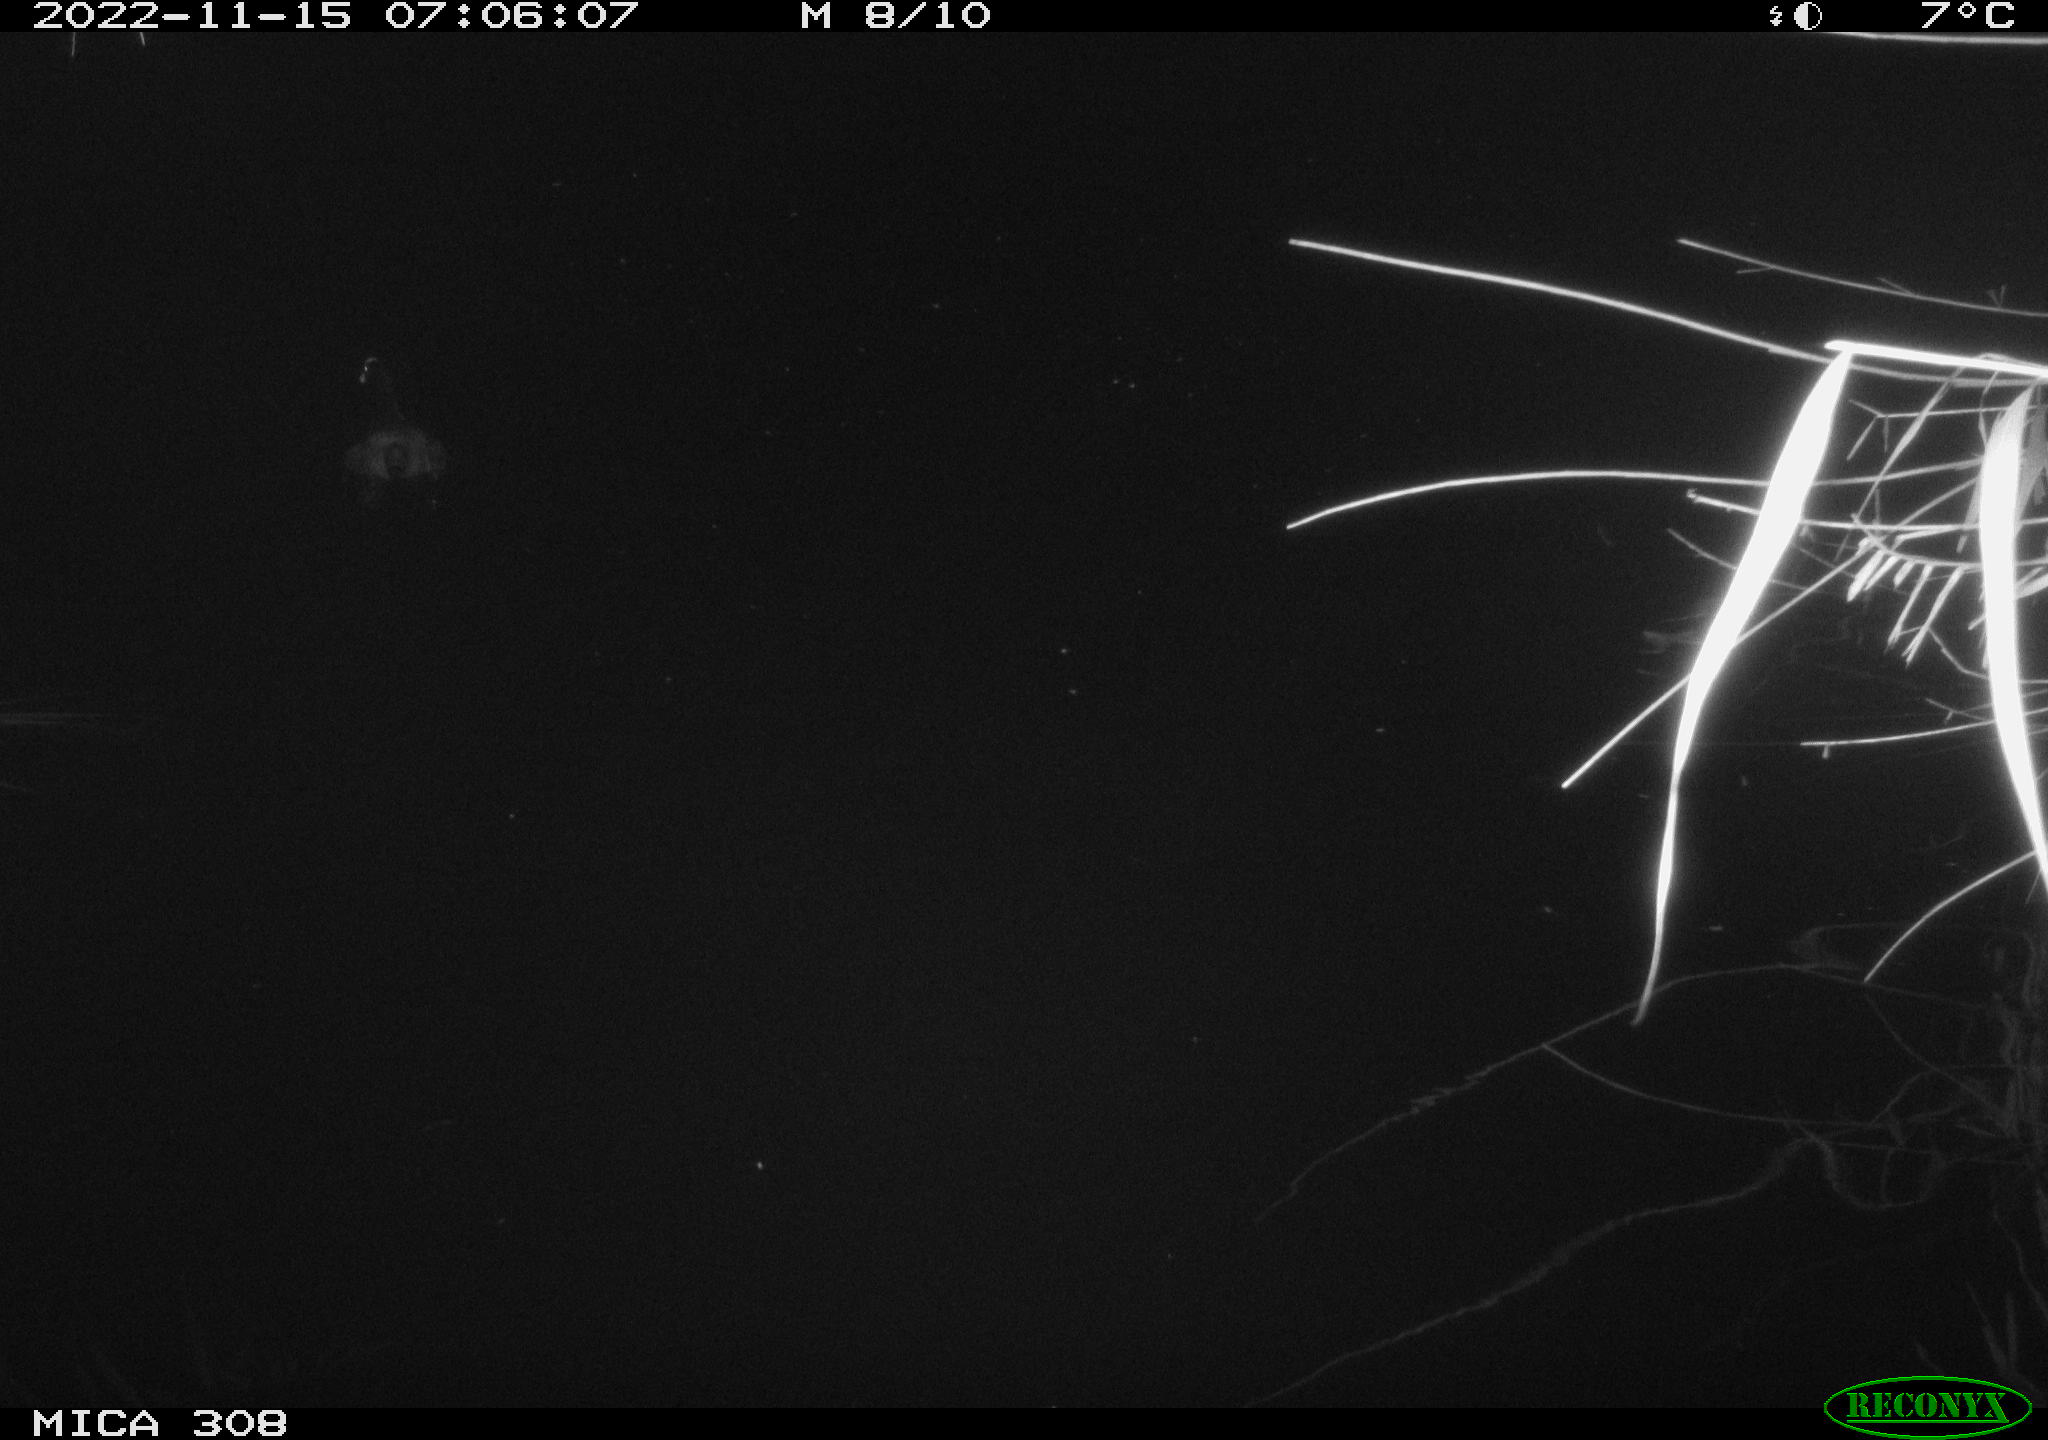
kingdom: Animalia
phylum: Chordata
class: Aves
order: Gruiformes
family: Rallidae
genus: Gallinula
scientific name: Gallinula chloropus
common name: Common moorhen
